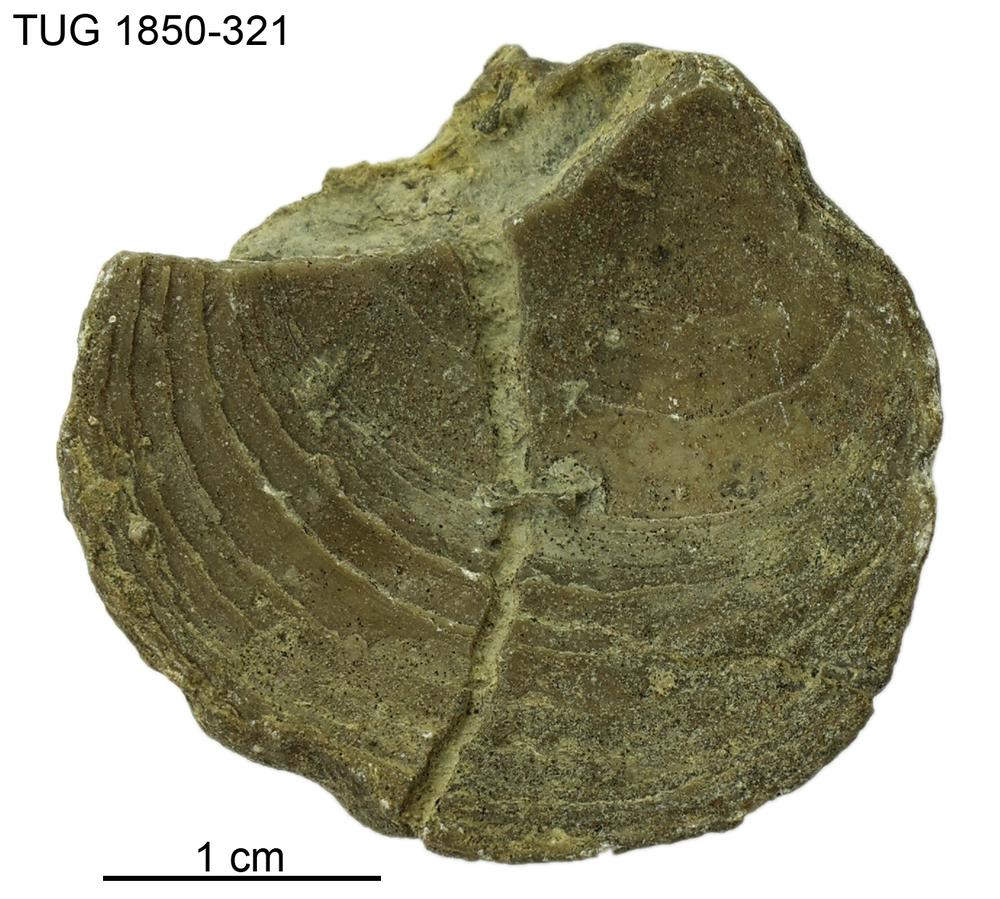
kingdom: Animalia
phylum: Porifera
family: Stromatoporidae
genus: Stromatopora
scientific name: Stromatopora
